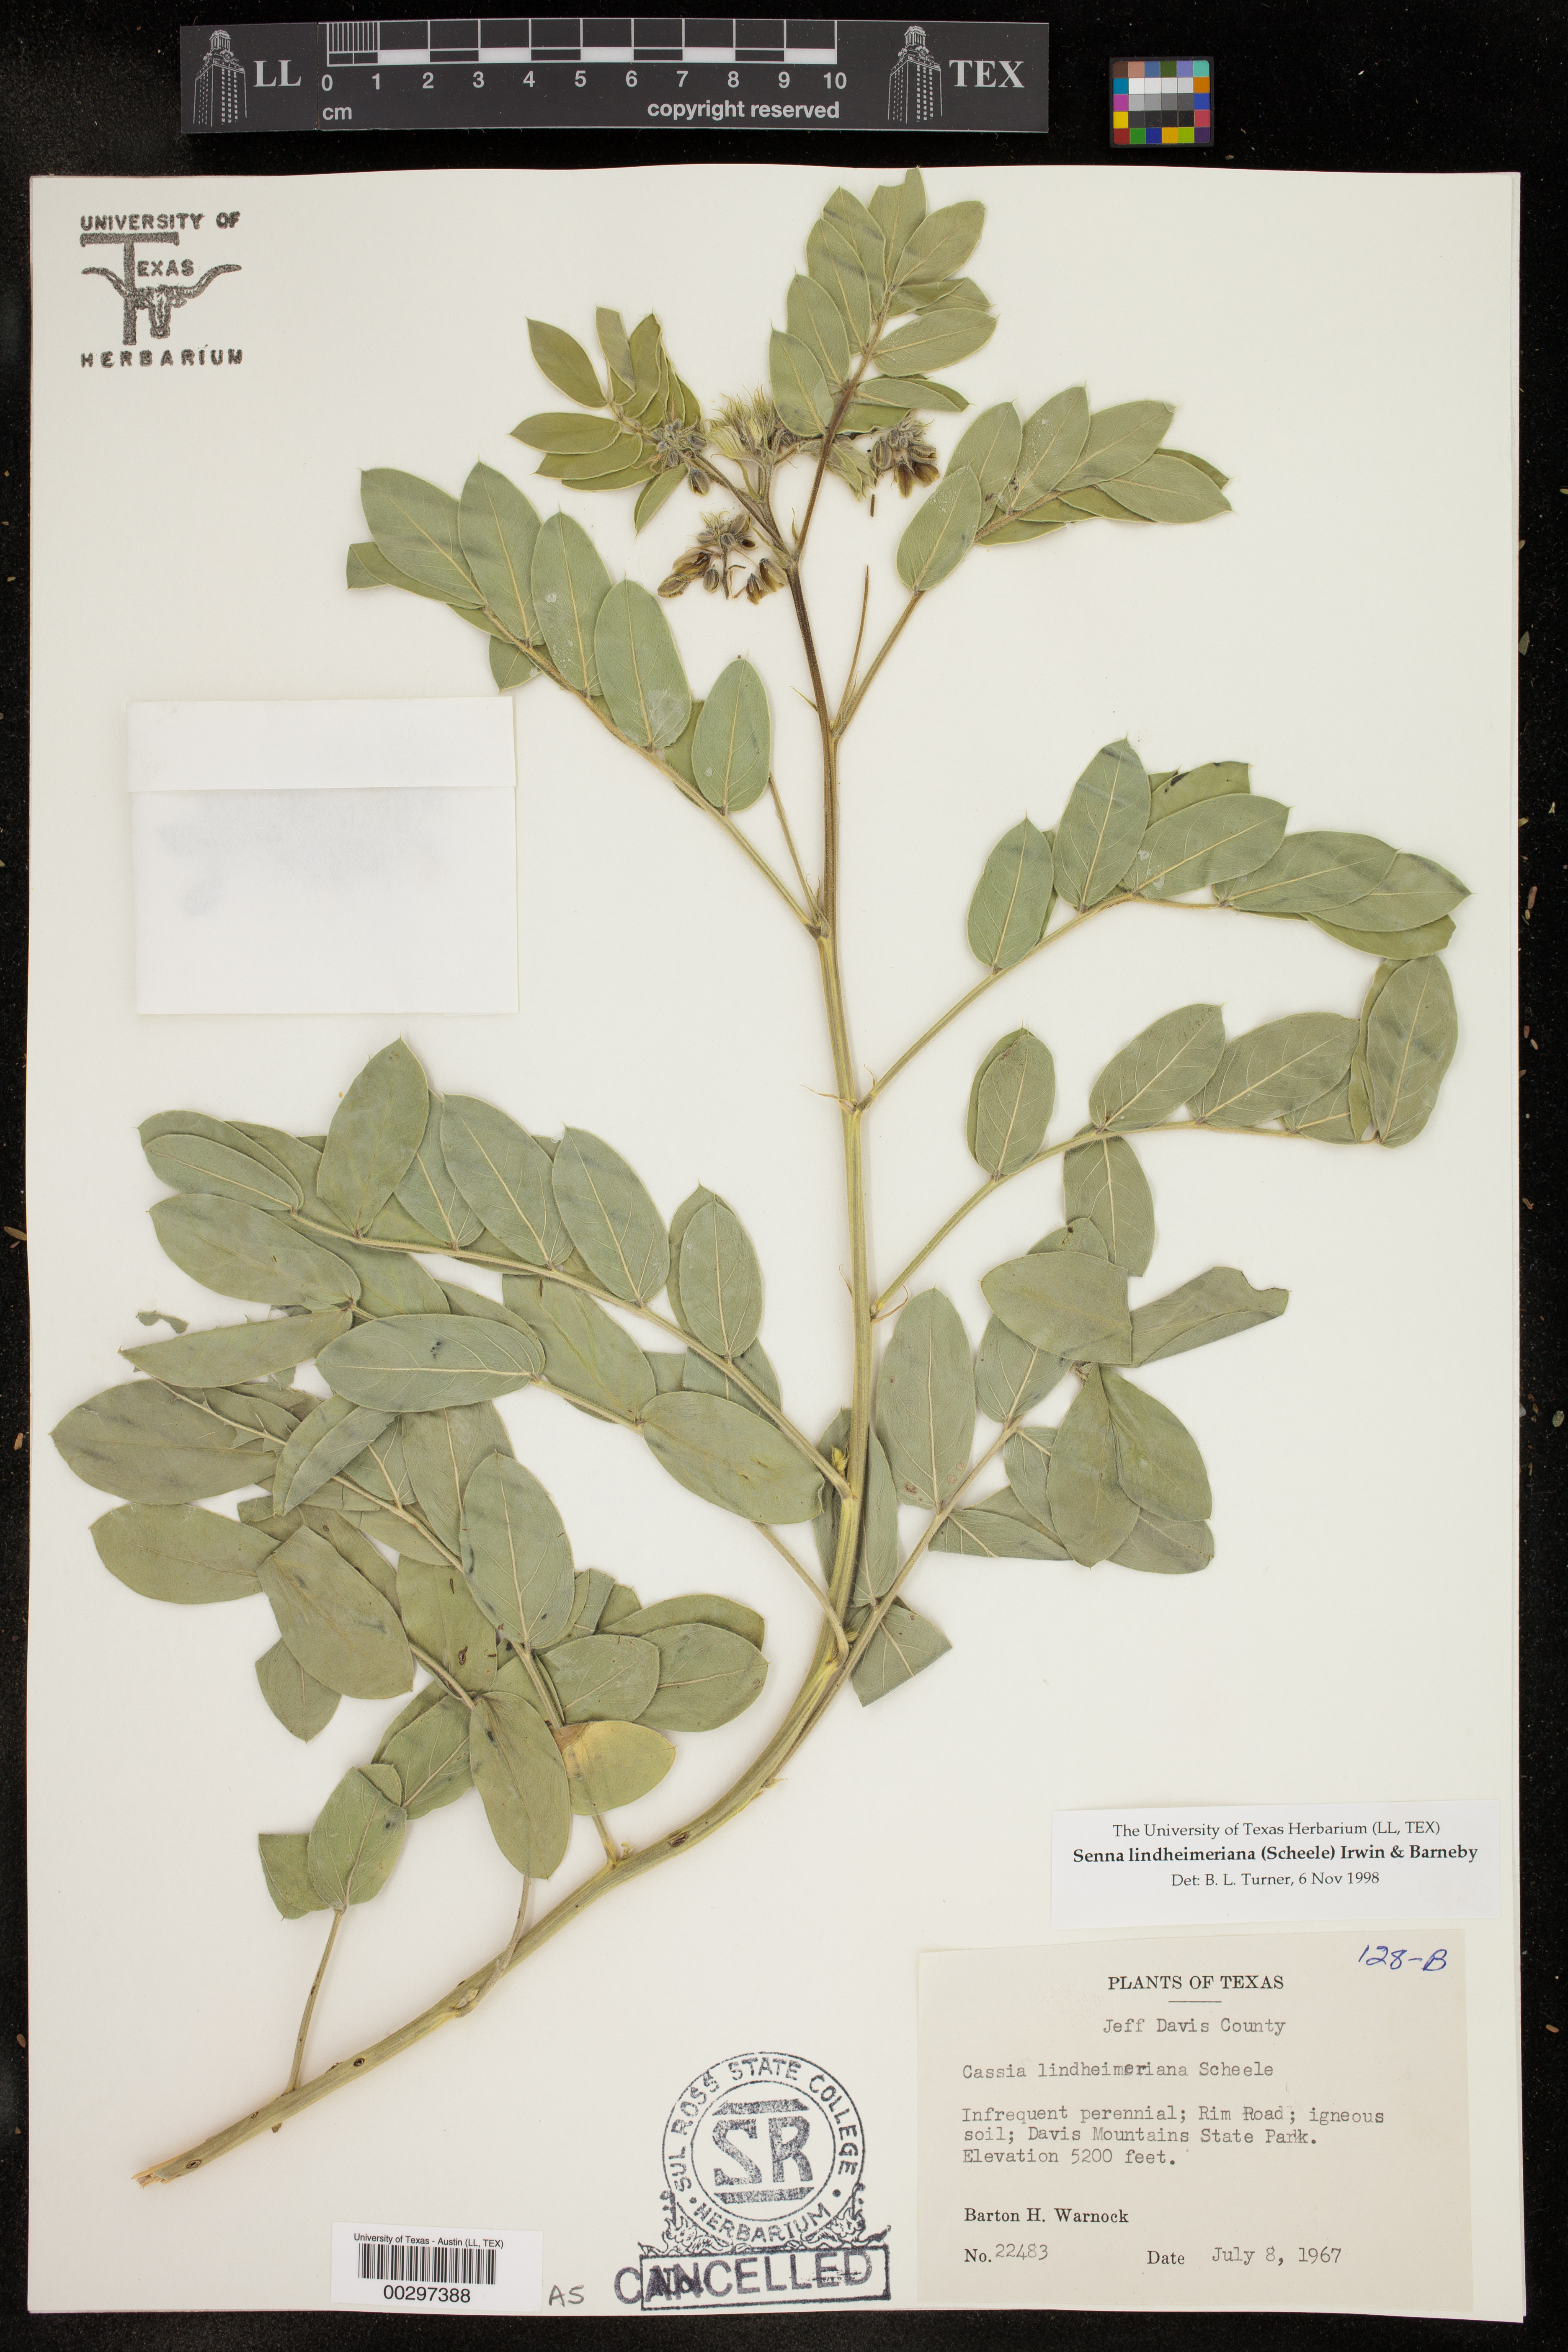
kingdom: Plantae
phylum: Tracheophyta
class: Magnoliopsida
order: Fabales
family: Fabaceae
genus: Senna
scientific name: Senna lindheimeriana
